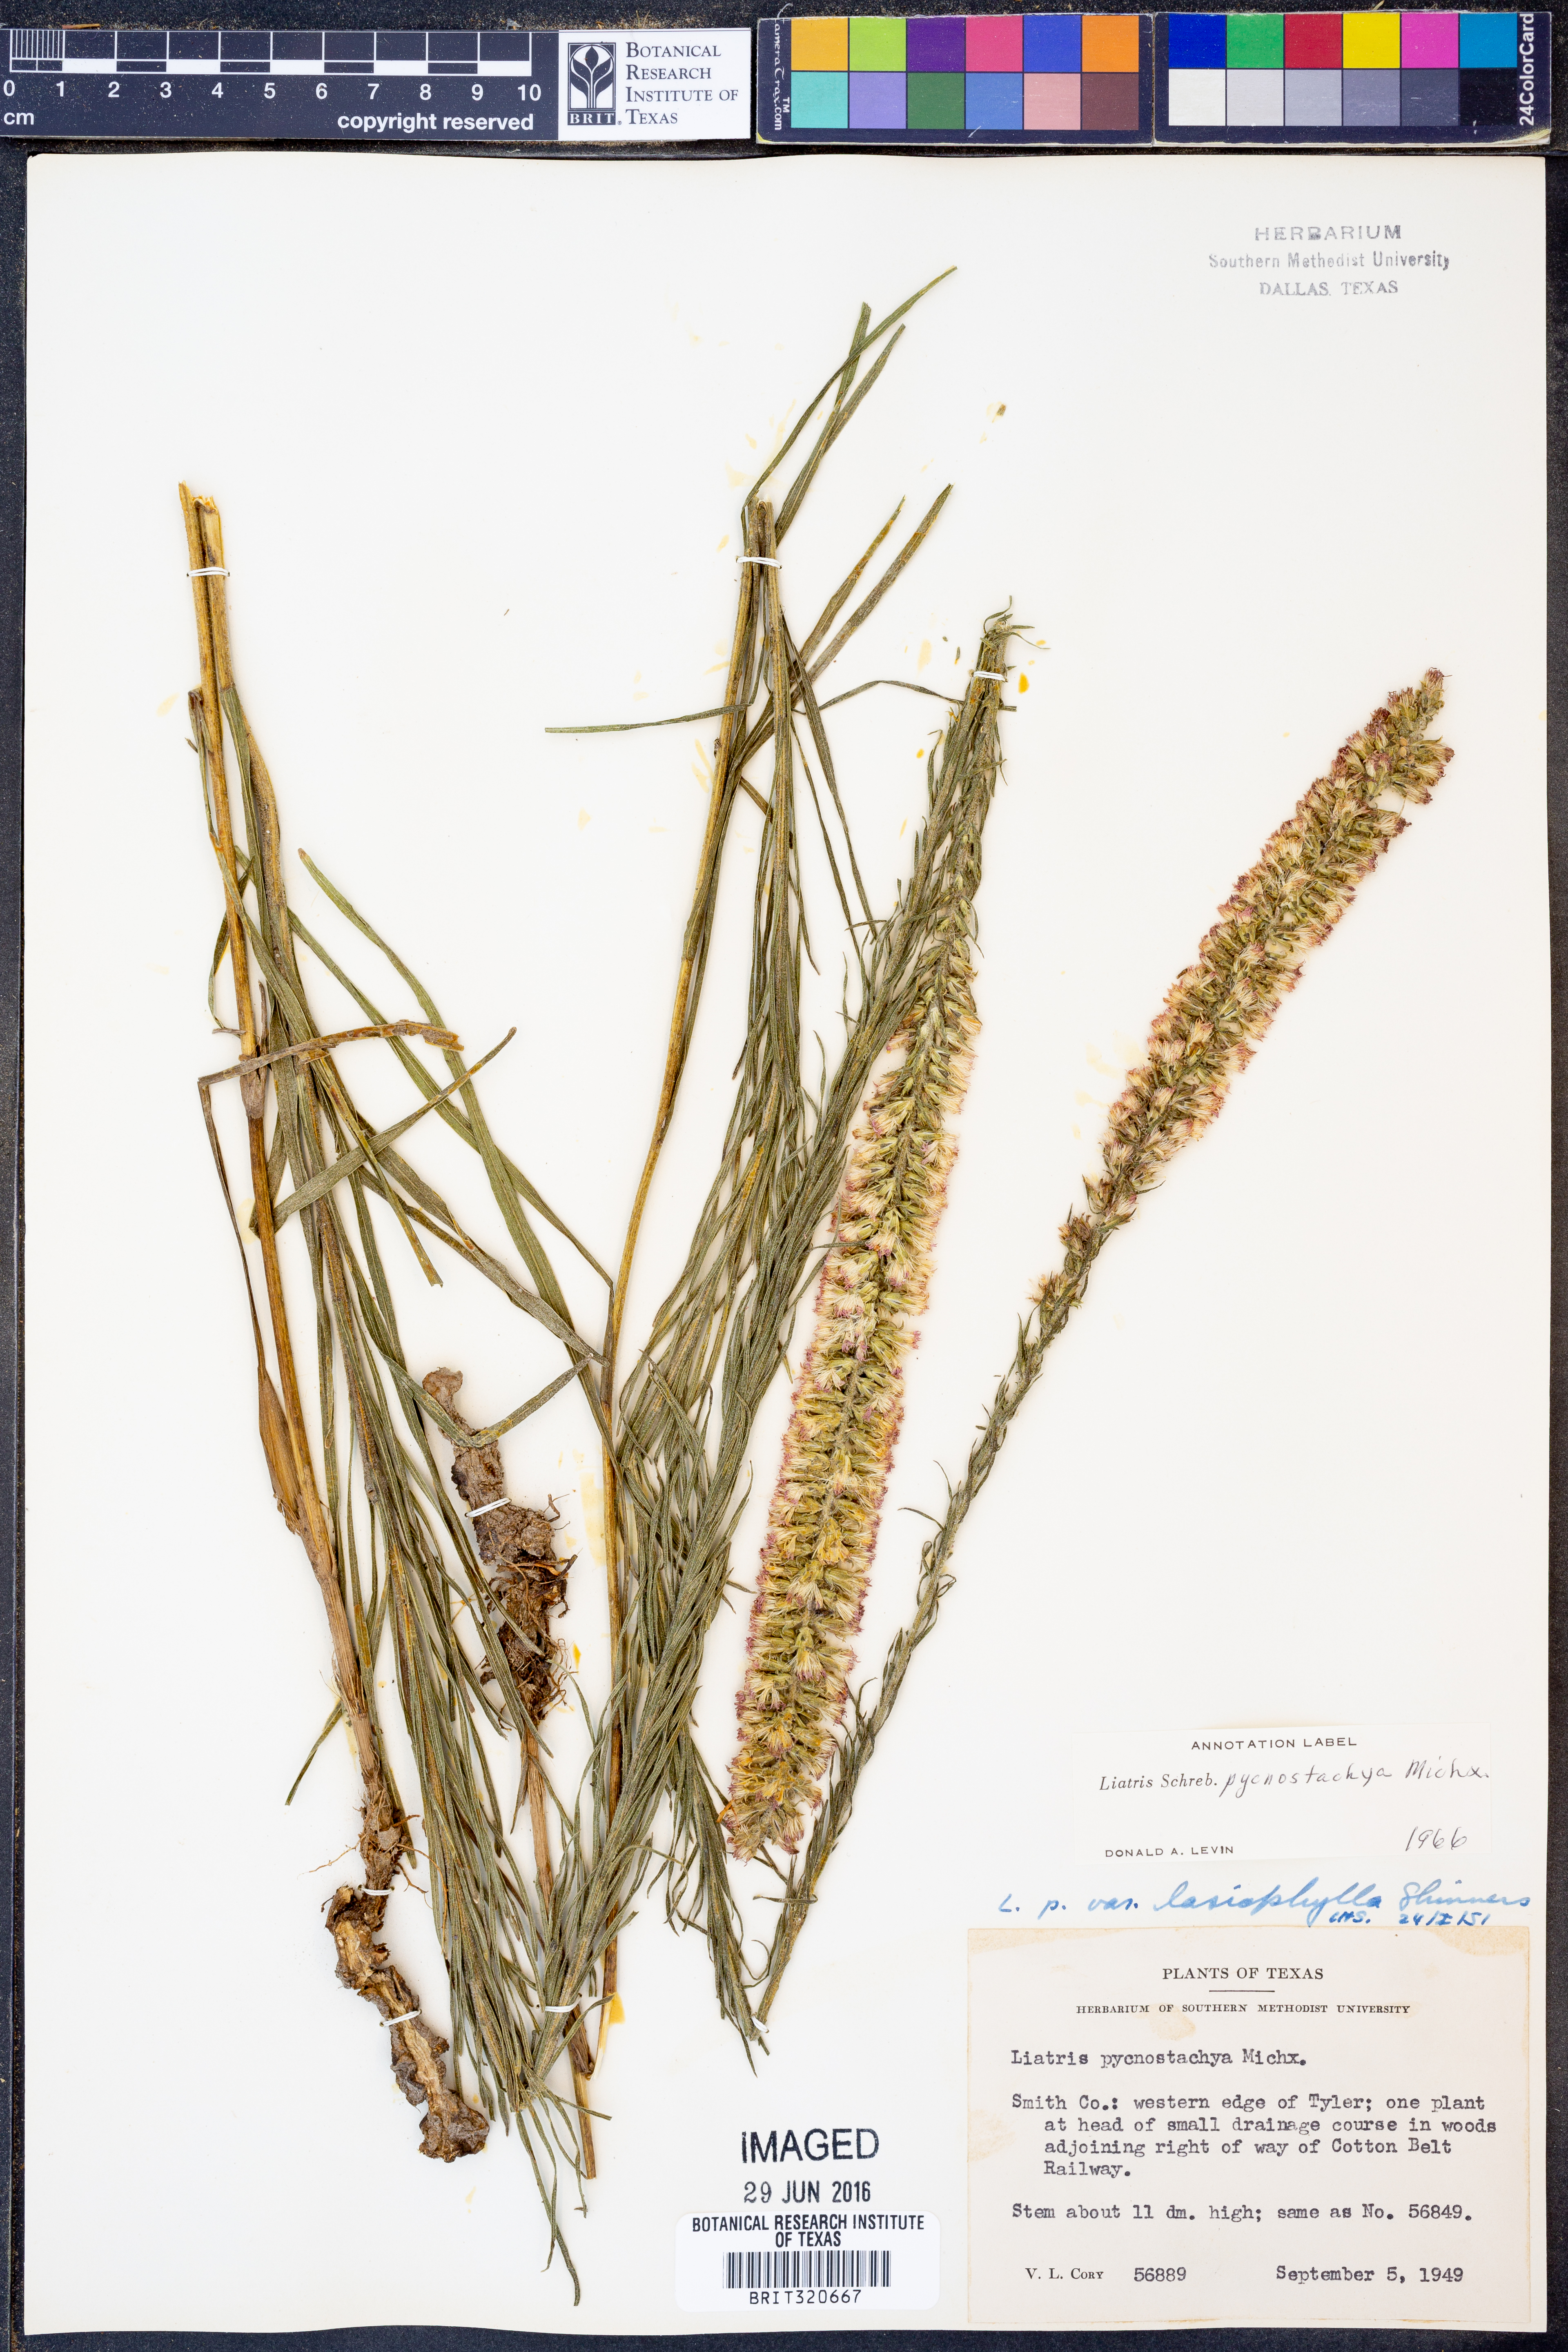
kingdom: Plantae
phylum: Tracheophyta
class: Magnoliopsida
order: Asterales
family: Asteraceae
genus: Liatris
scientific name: Liatris pycnostachya
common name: Cattail gayfeather
